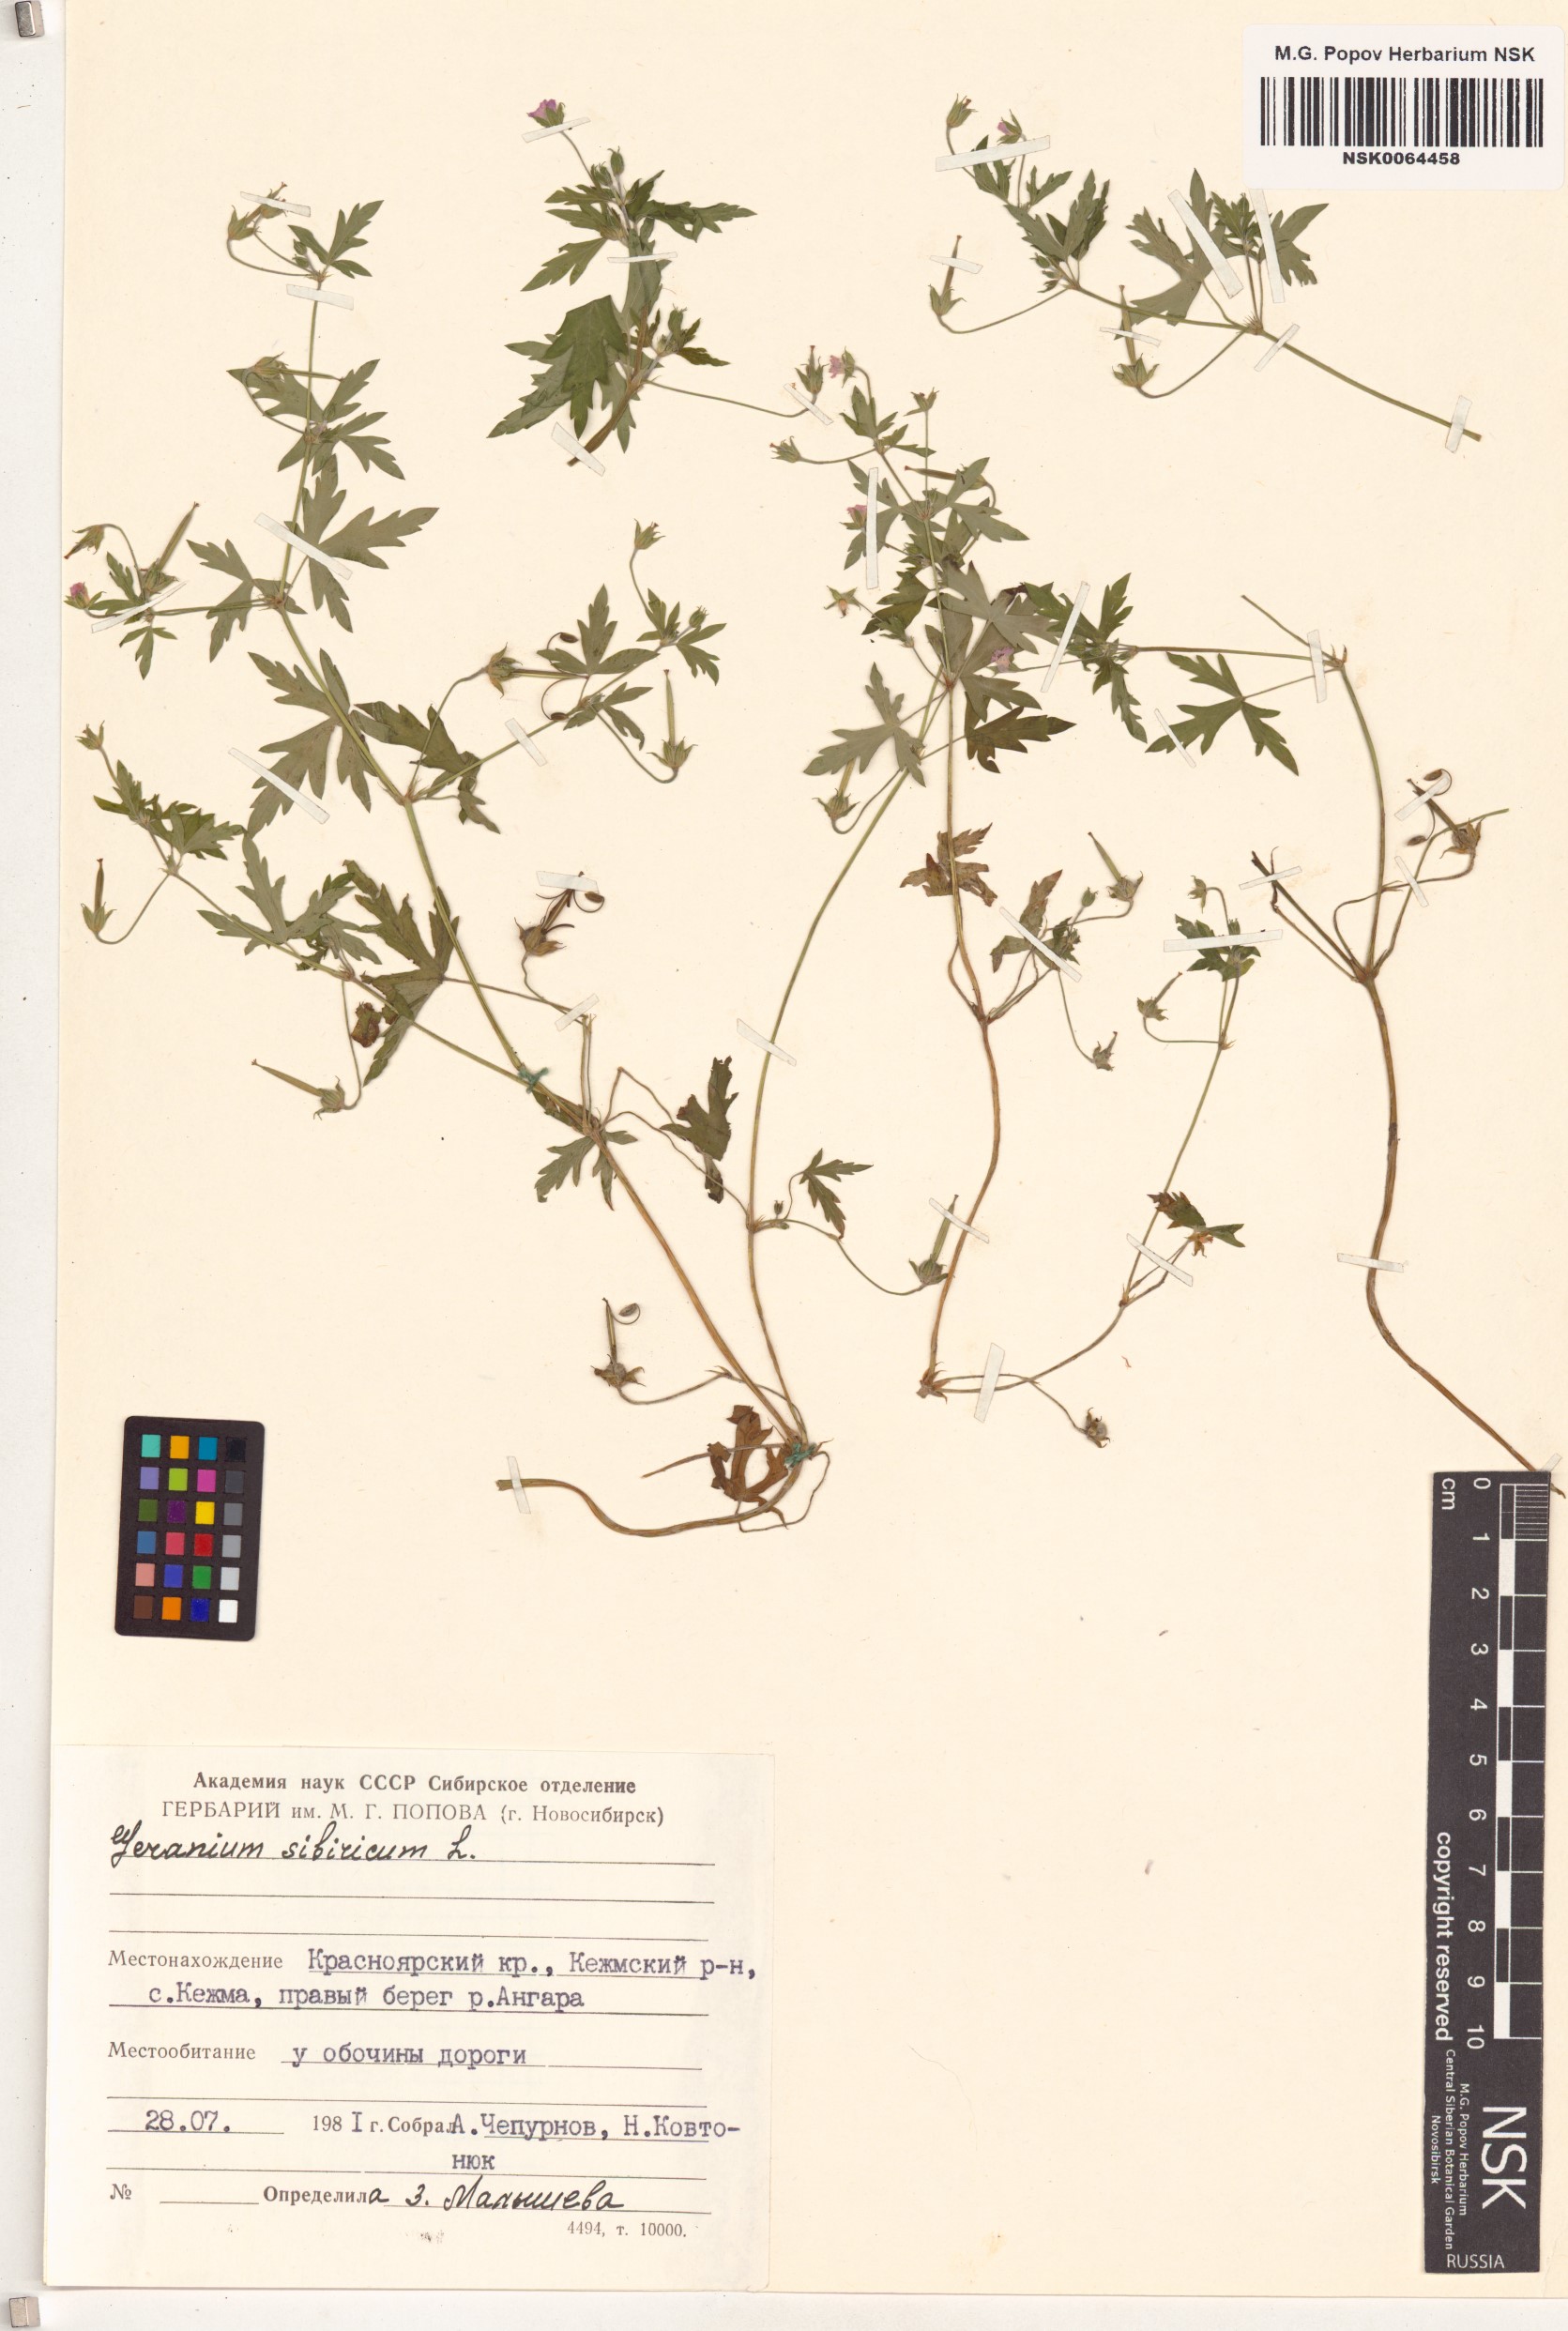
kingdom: Plantae
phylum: Tracheophyta
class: Magnoliopsida
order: Geraniales
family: Geraniaceae
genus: Geranium
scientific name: Geranium sibiricum
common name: Siberian crane's-bill
